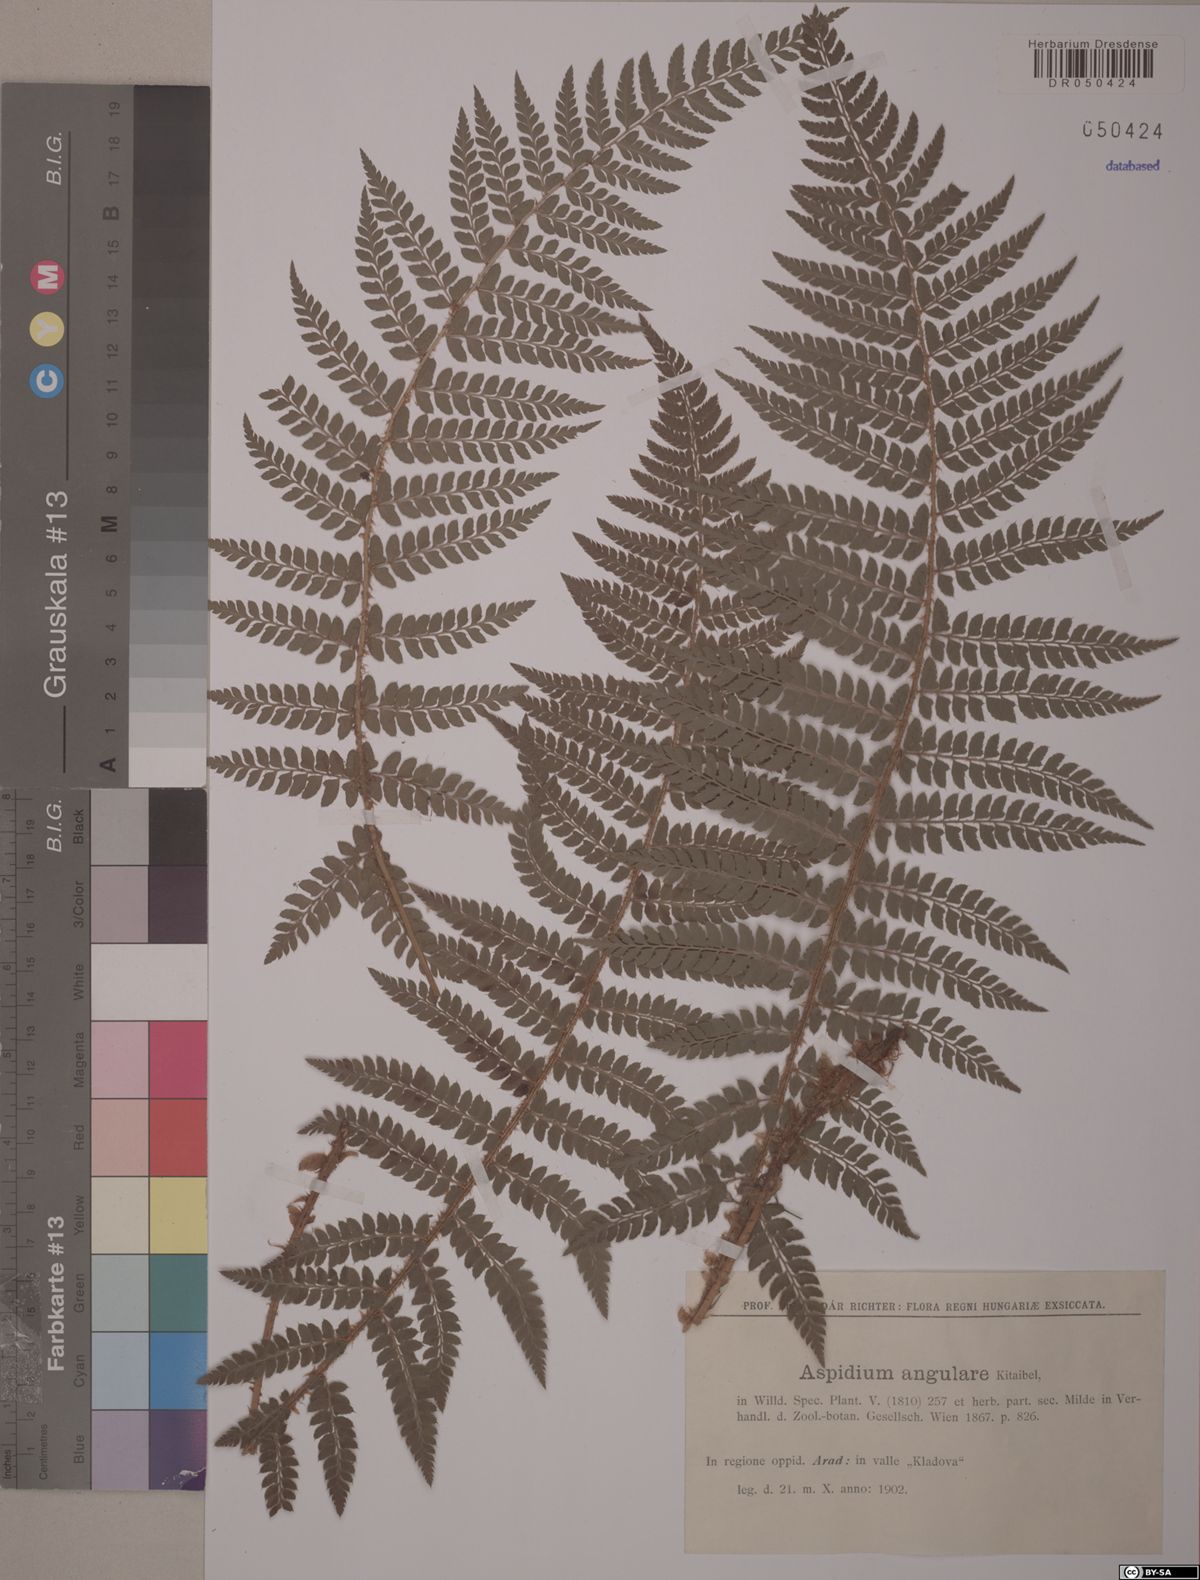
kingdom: Plantae
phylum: Tracheophyta
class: Polypodiopsida
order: Polypodiales
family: Dryopteridaceae
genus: Polystichum
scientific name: Polystichum setiferum
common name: Soft shield-fern
